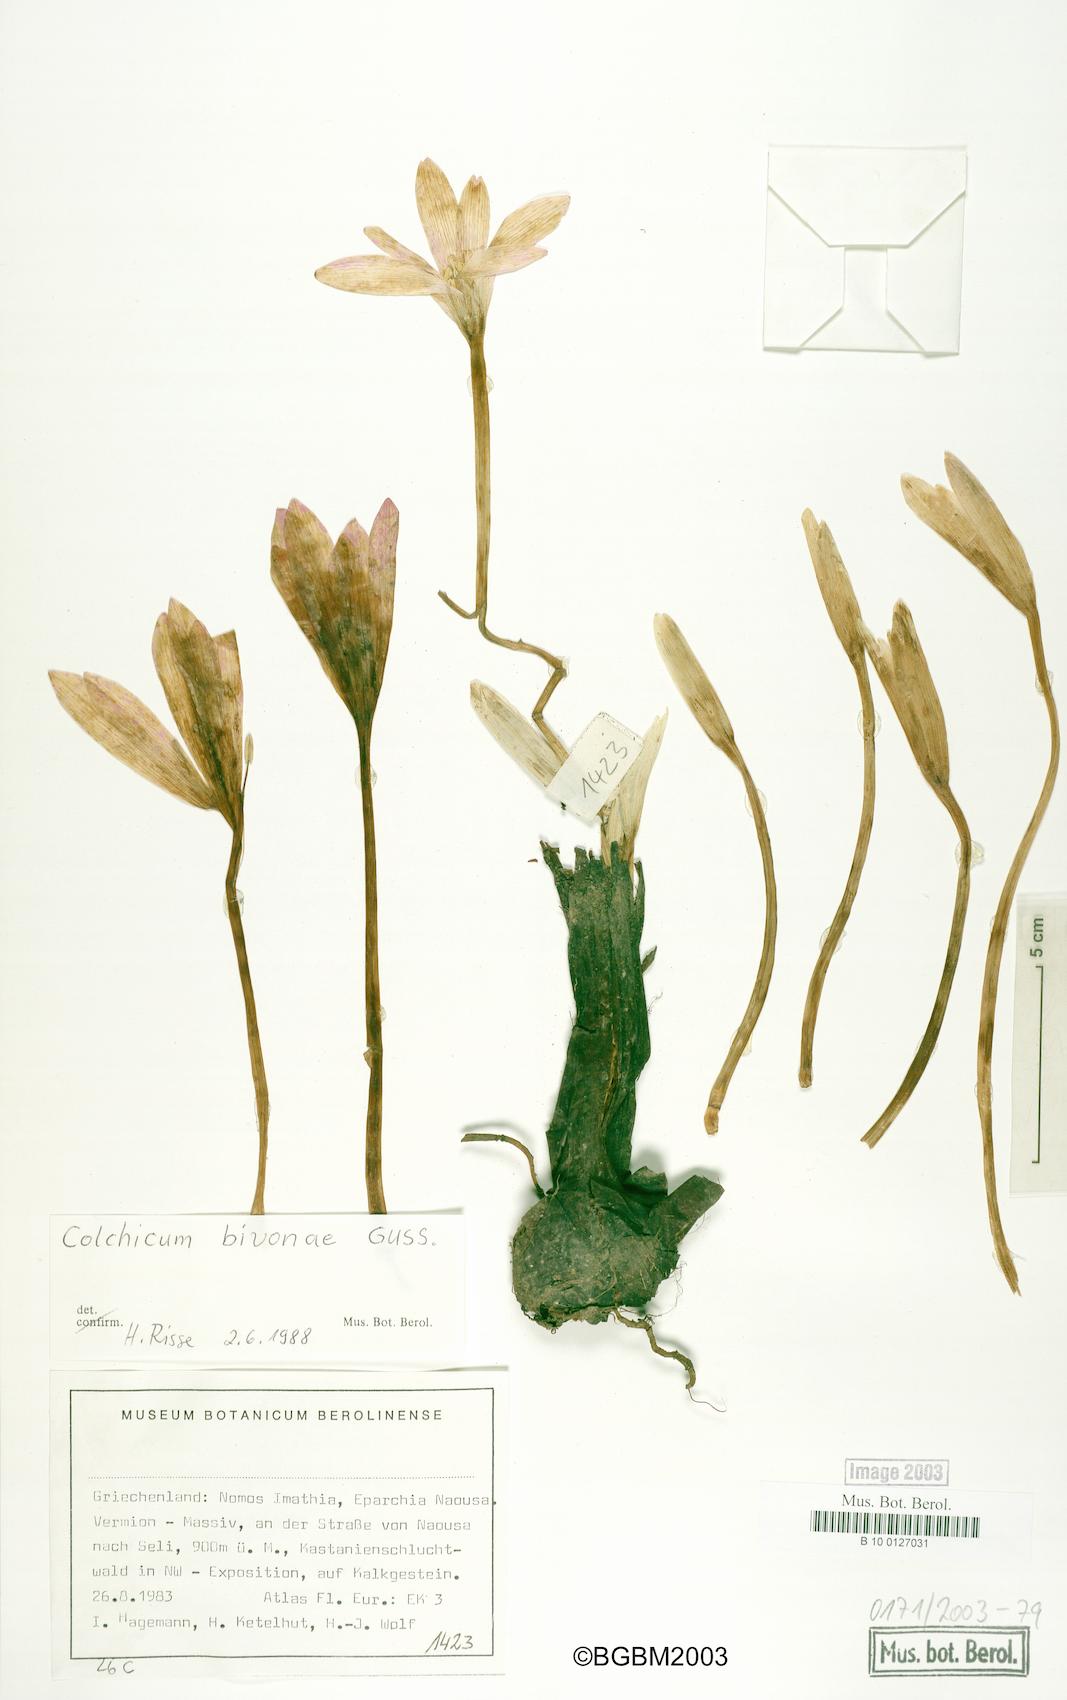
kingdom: Plantae
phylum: Tracheophyta
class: Liliopsida
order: Liliales
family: Colchicaceae
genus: Colchicum
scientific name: Colchicum bivonae
